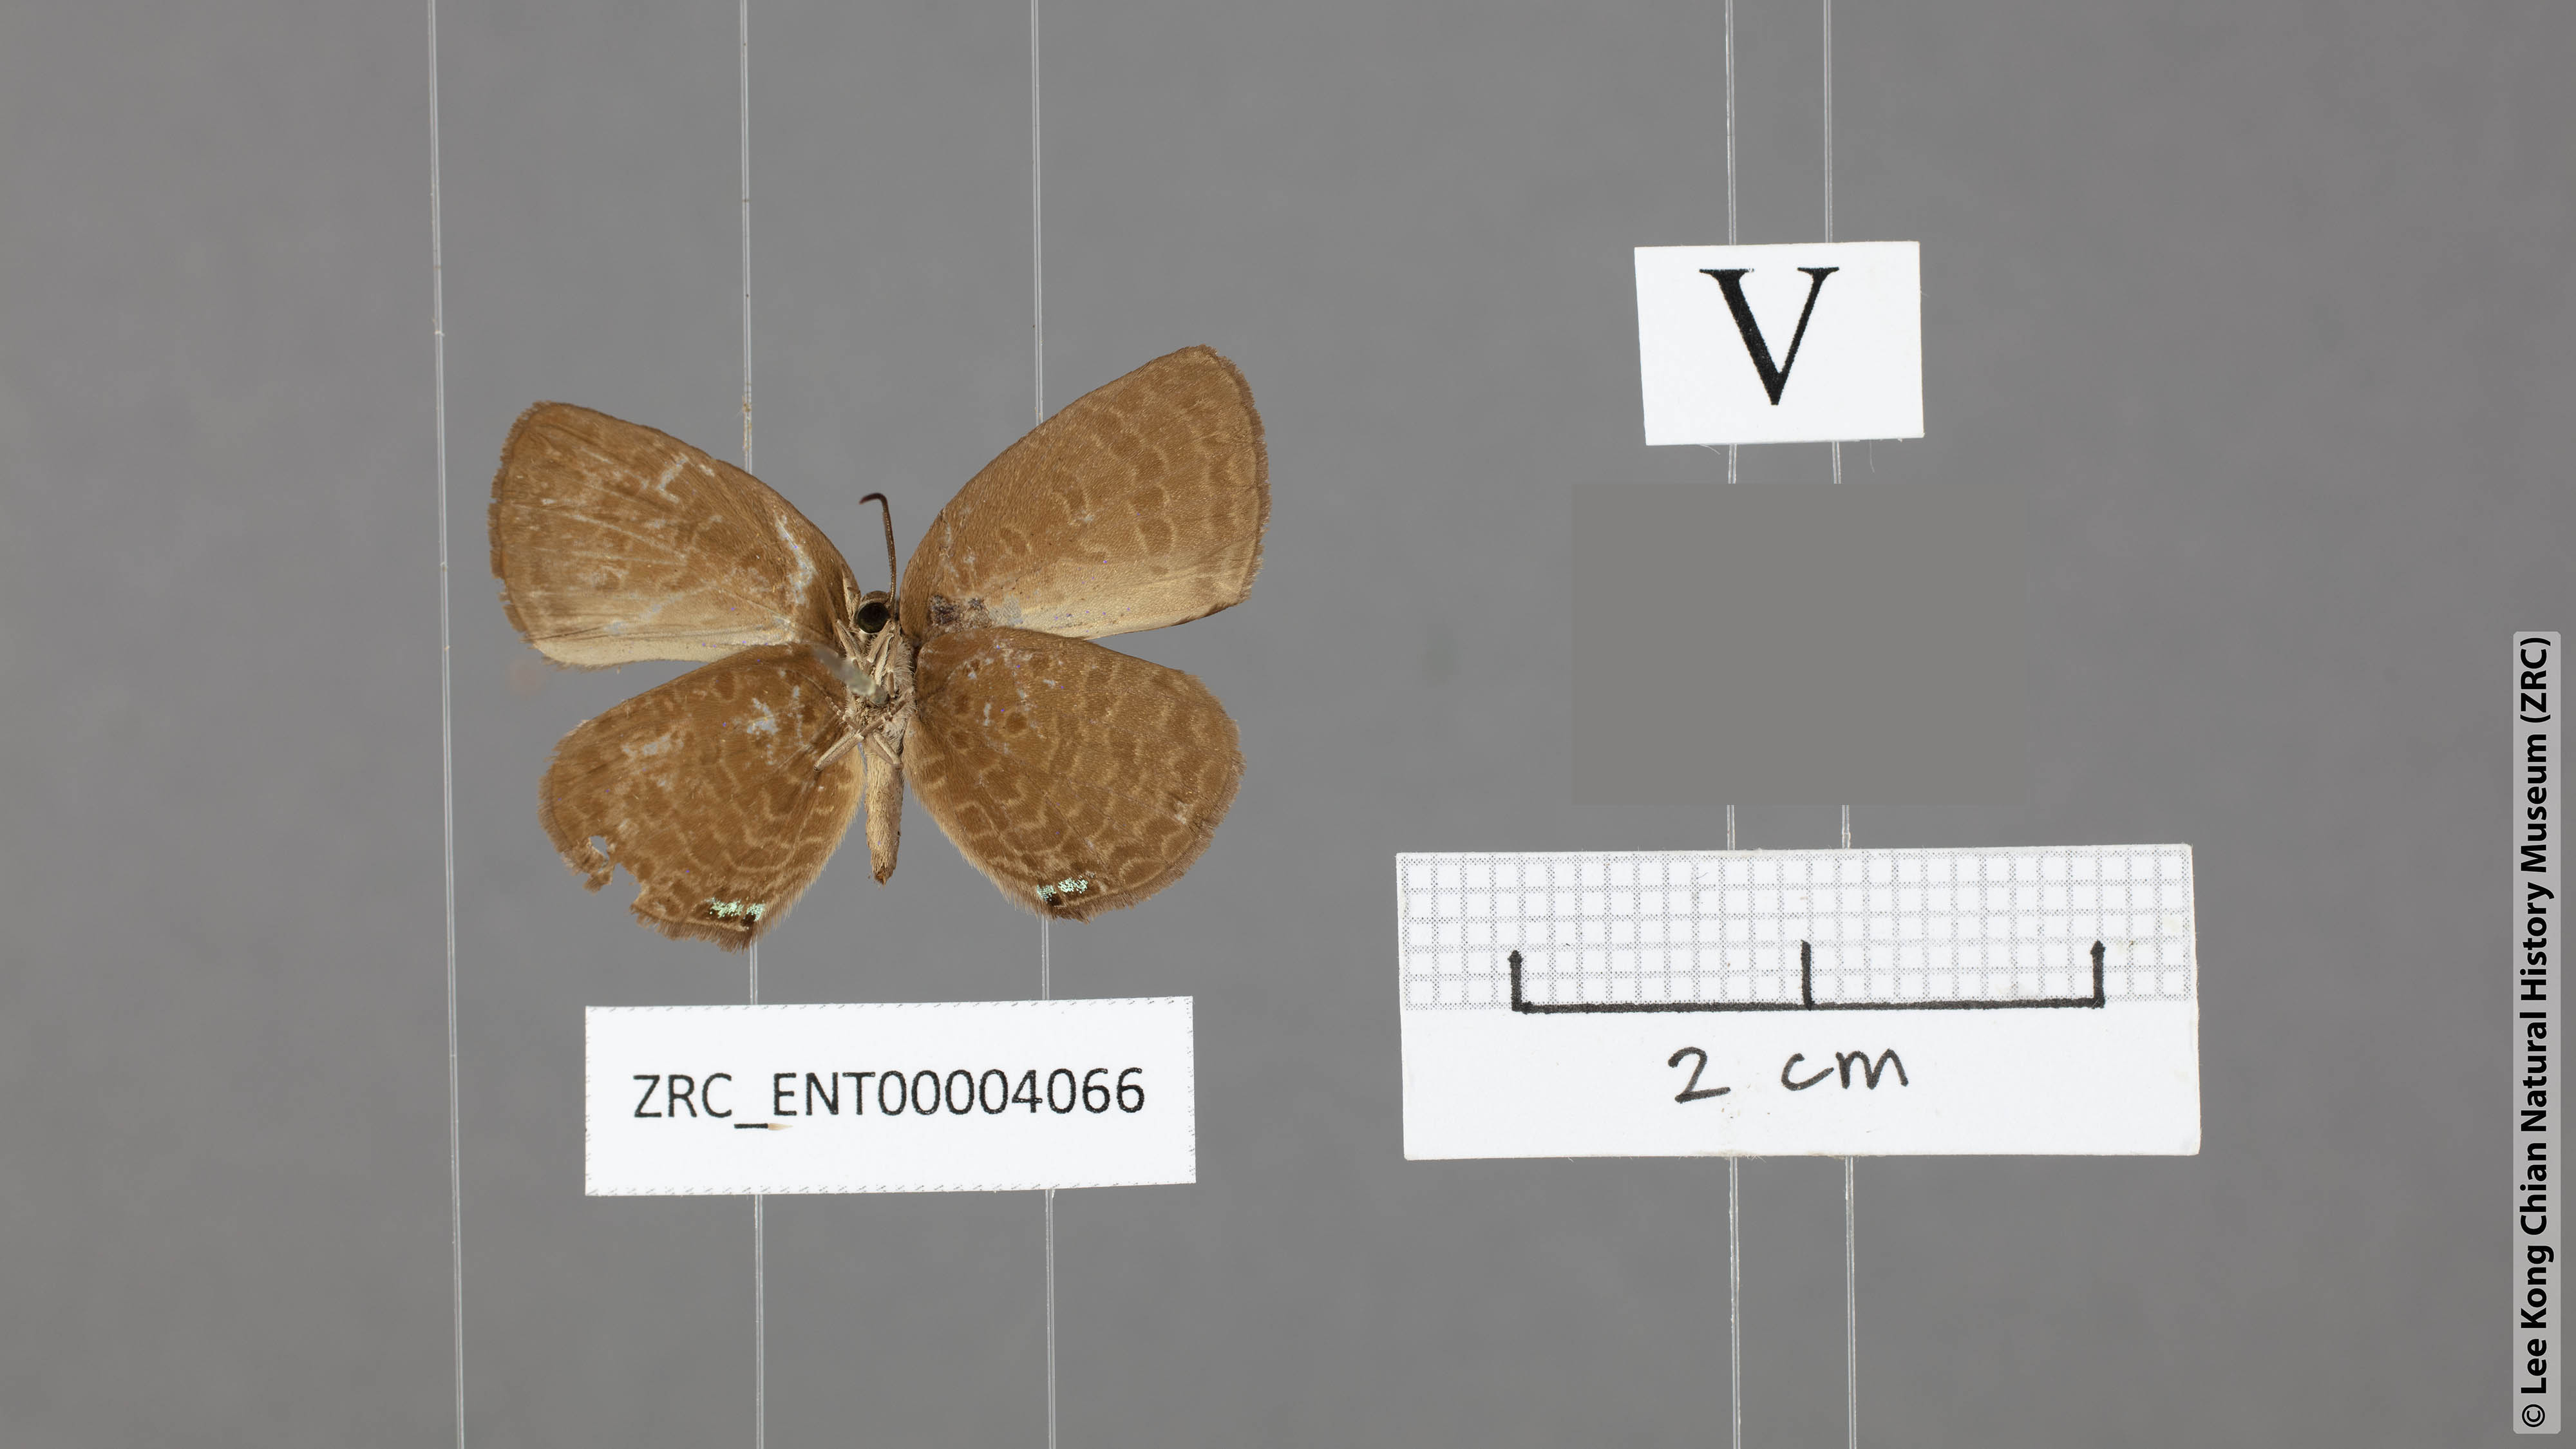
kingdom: Animalia
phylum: Arthropoda
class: Insecta
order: Lepidoptera
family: Lycaenidae
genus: Arhopala
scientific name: Arhopala wildeyana
